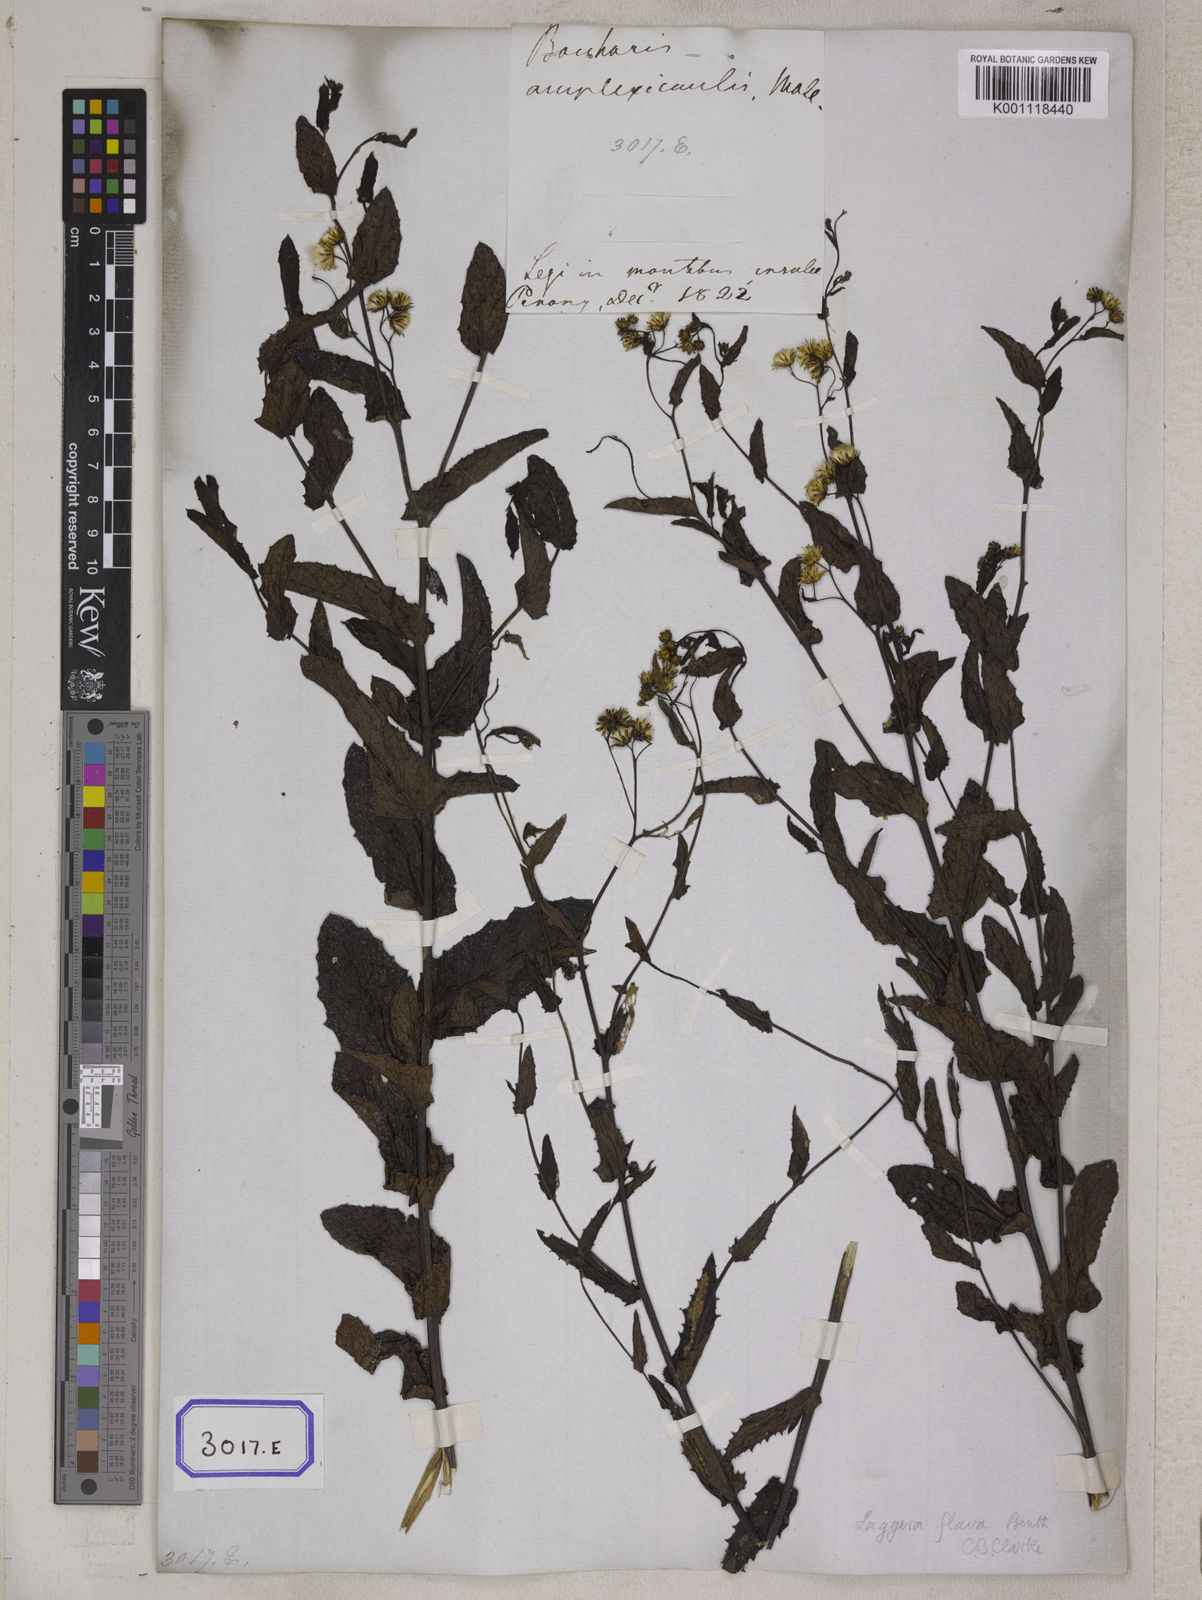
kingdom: Plantae
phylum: Tracheophyta
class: Magnoliopsida
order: Asterales
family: Asteraceae
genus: Blumea
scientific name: Blumea sessiliflora
